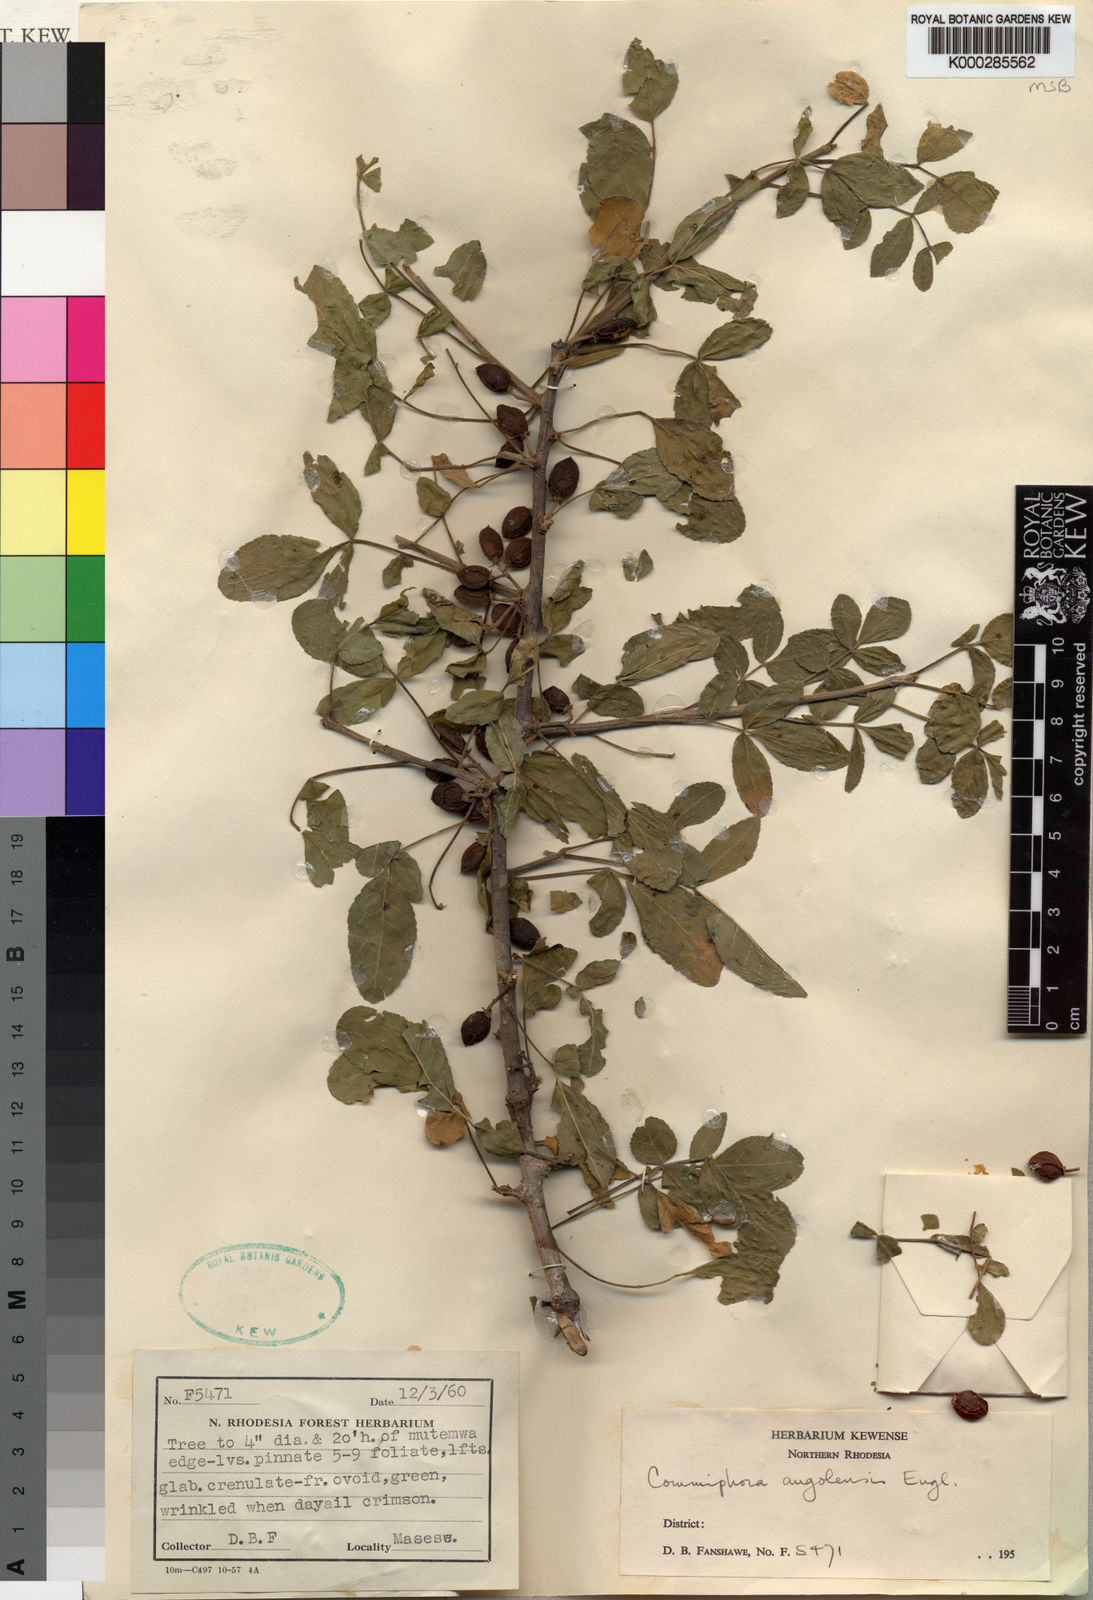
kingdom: Plantae
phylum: Tracheophyta
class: Magnoliopsida
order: Sapindales
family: Burseraceae
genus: Commiphora
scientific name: Commiphora angolensis
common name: Poison-grub
